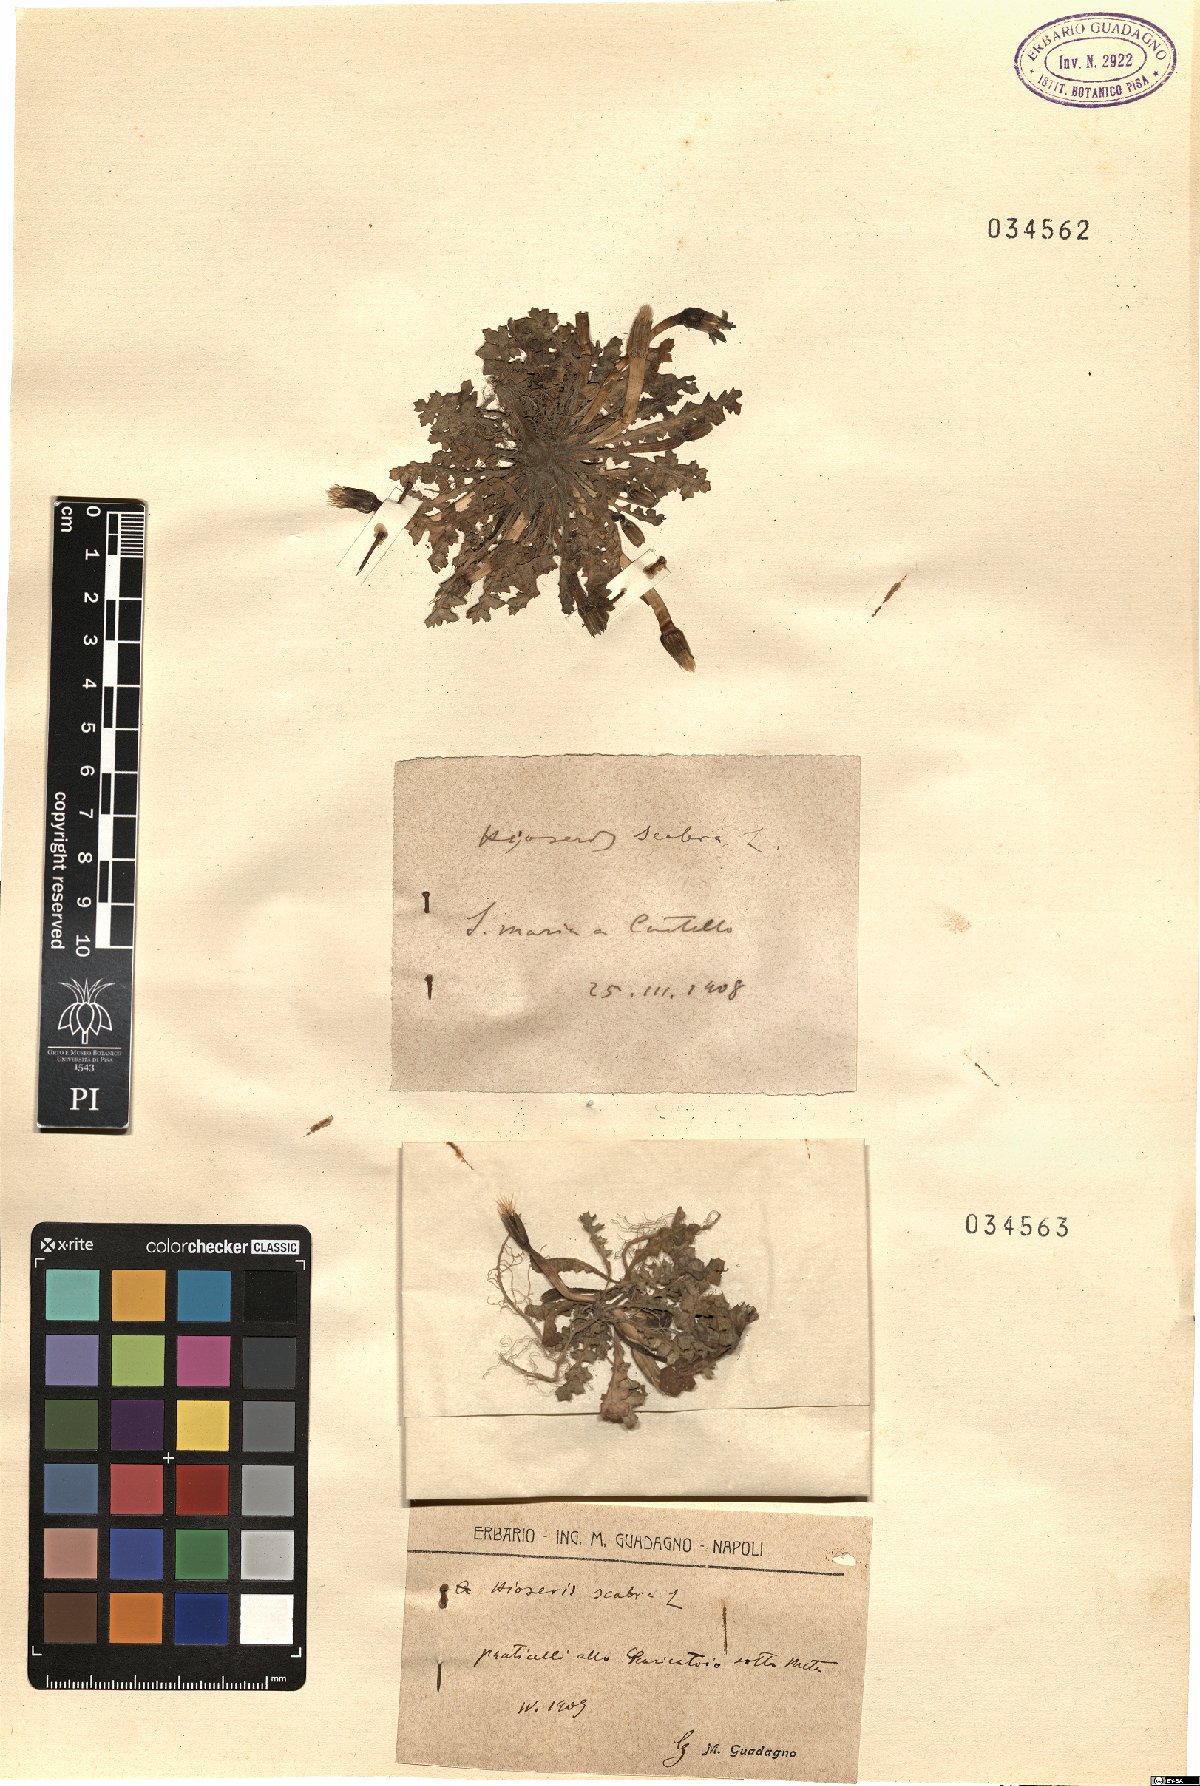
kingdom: Plantae
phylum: Tracheophyta
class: Magnoliopsida
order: Asterales
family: Asteraceae
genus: Hyoseris
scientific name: Hyoseris scabra
